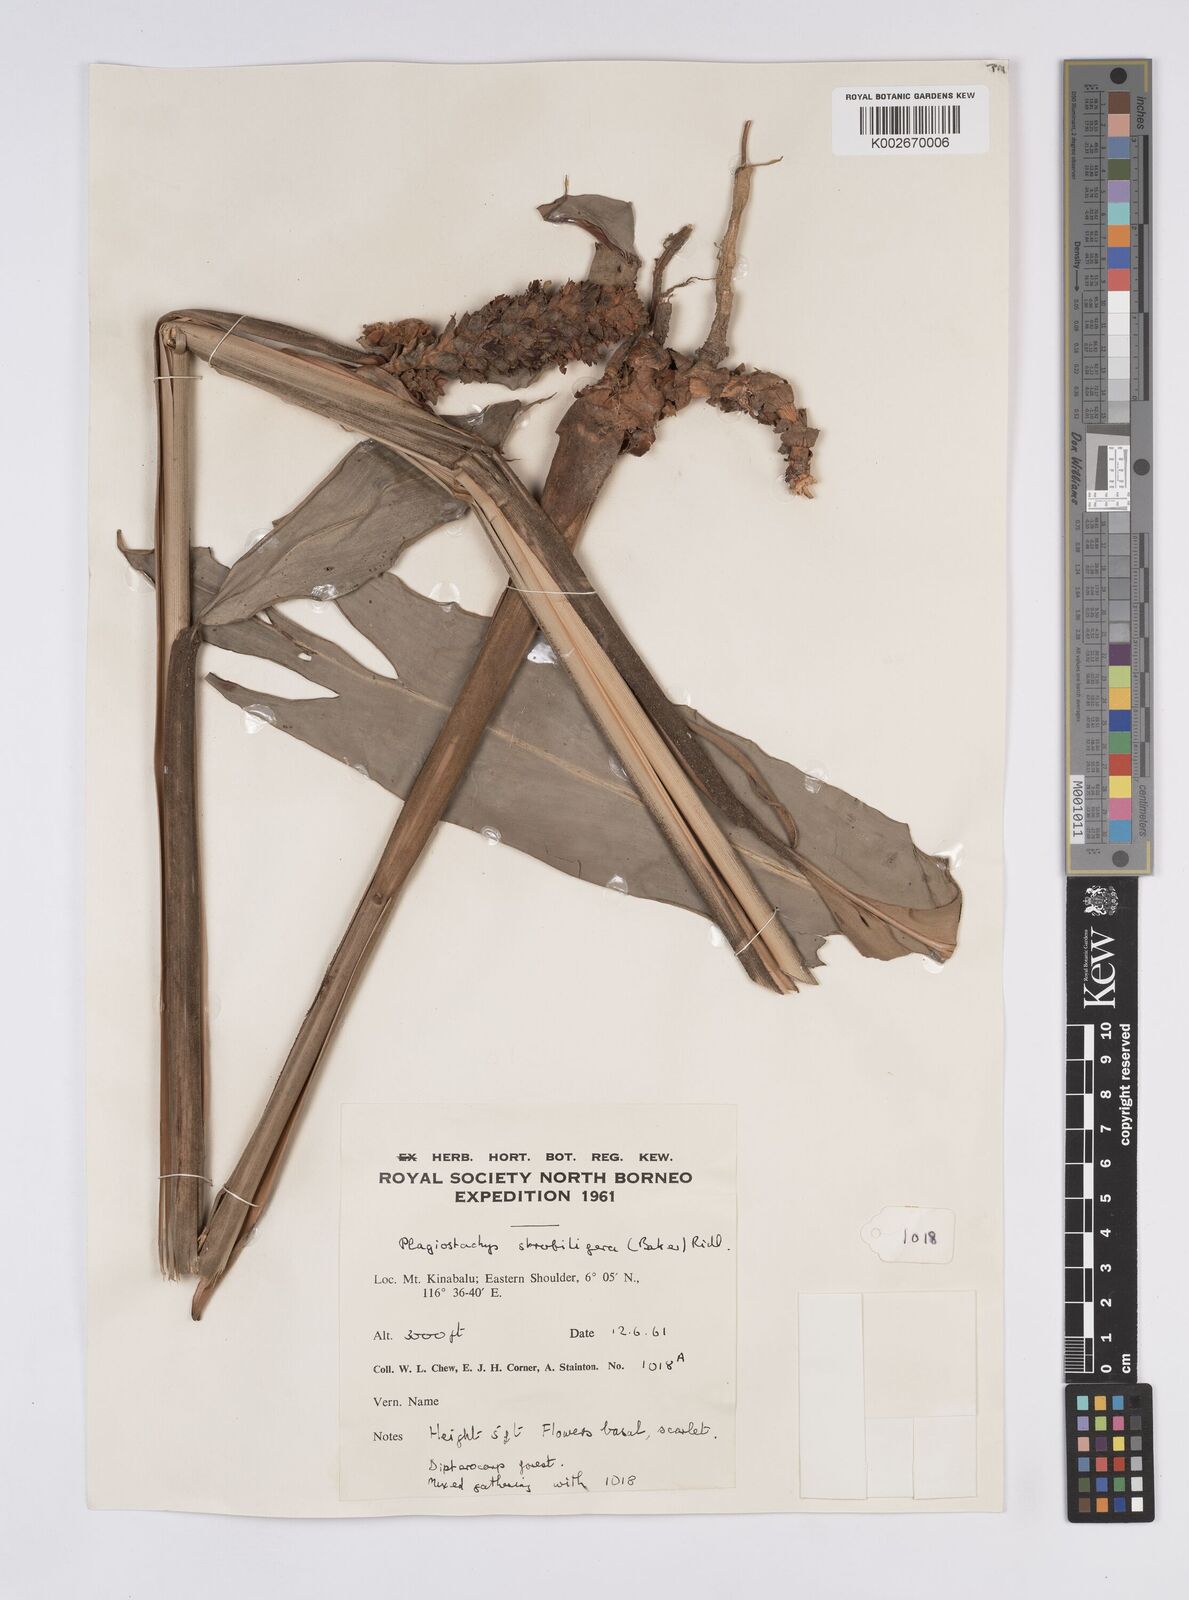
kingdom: Plantae
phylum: Tracheophyta
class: Liliopsida
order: Zingiberales
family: Zingiberaceae
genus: Plagiostachys
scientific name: Plagiostachys strobilifera
